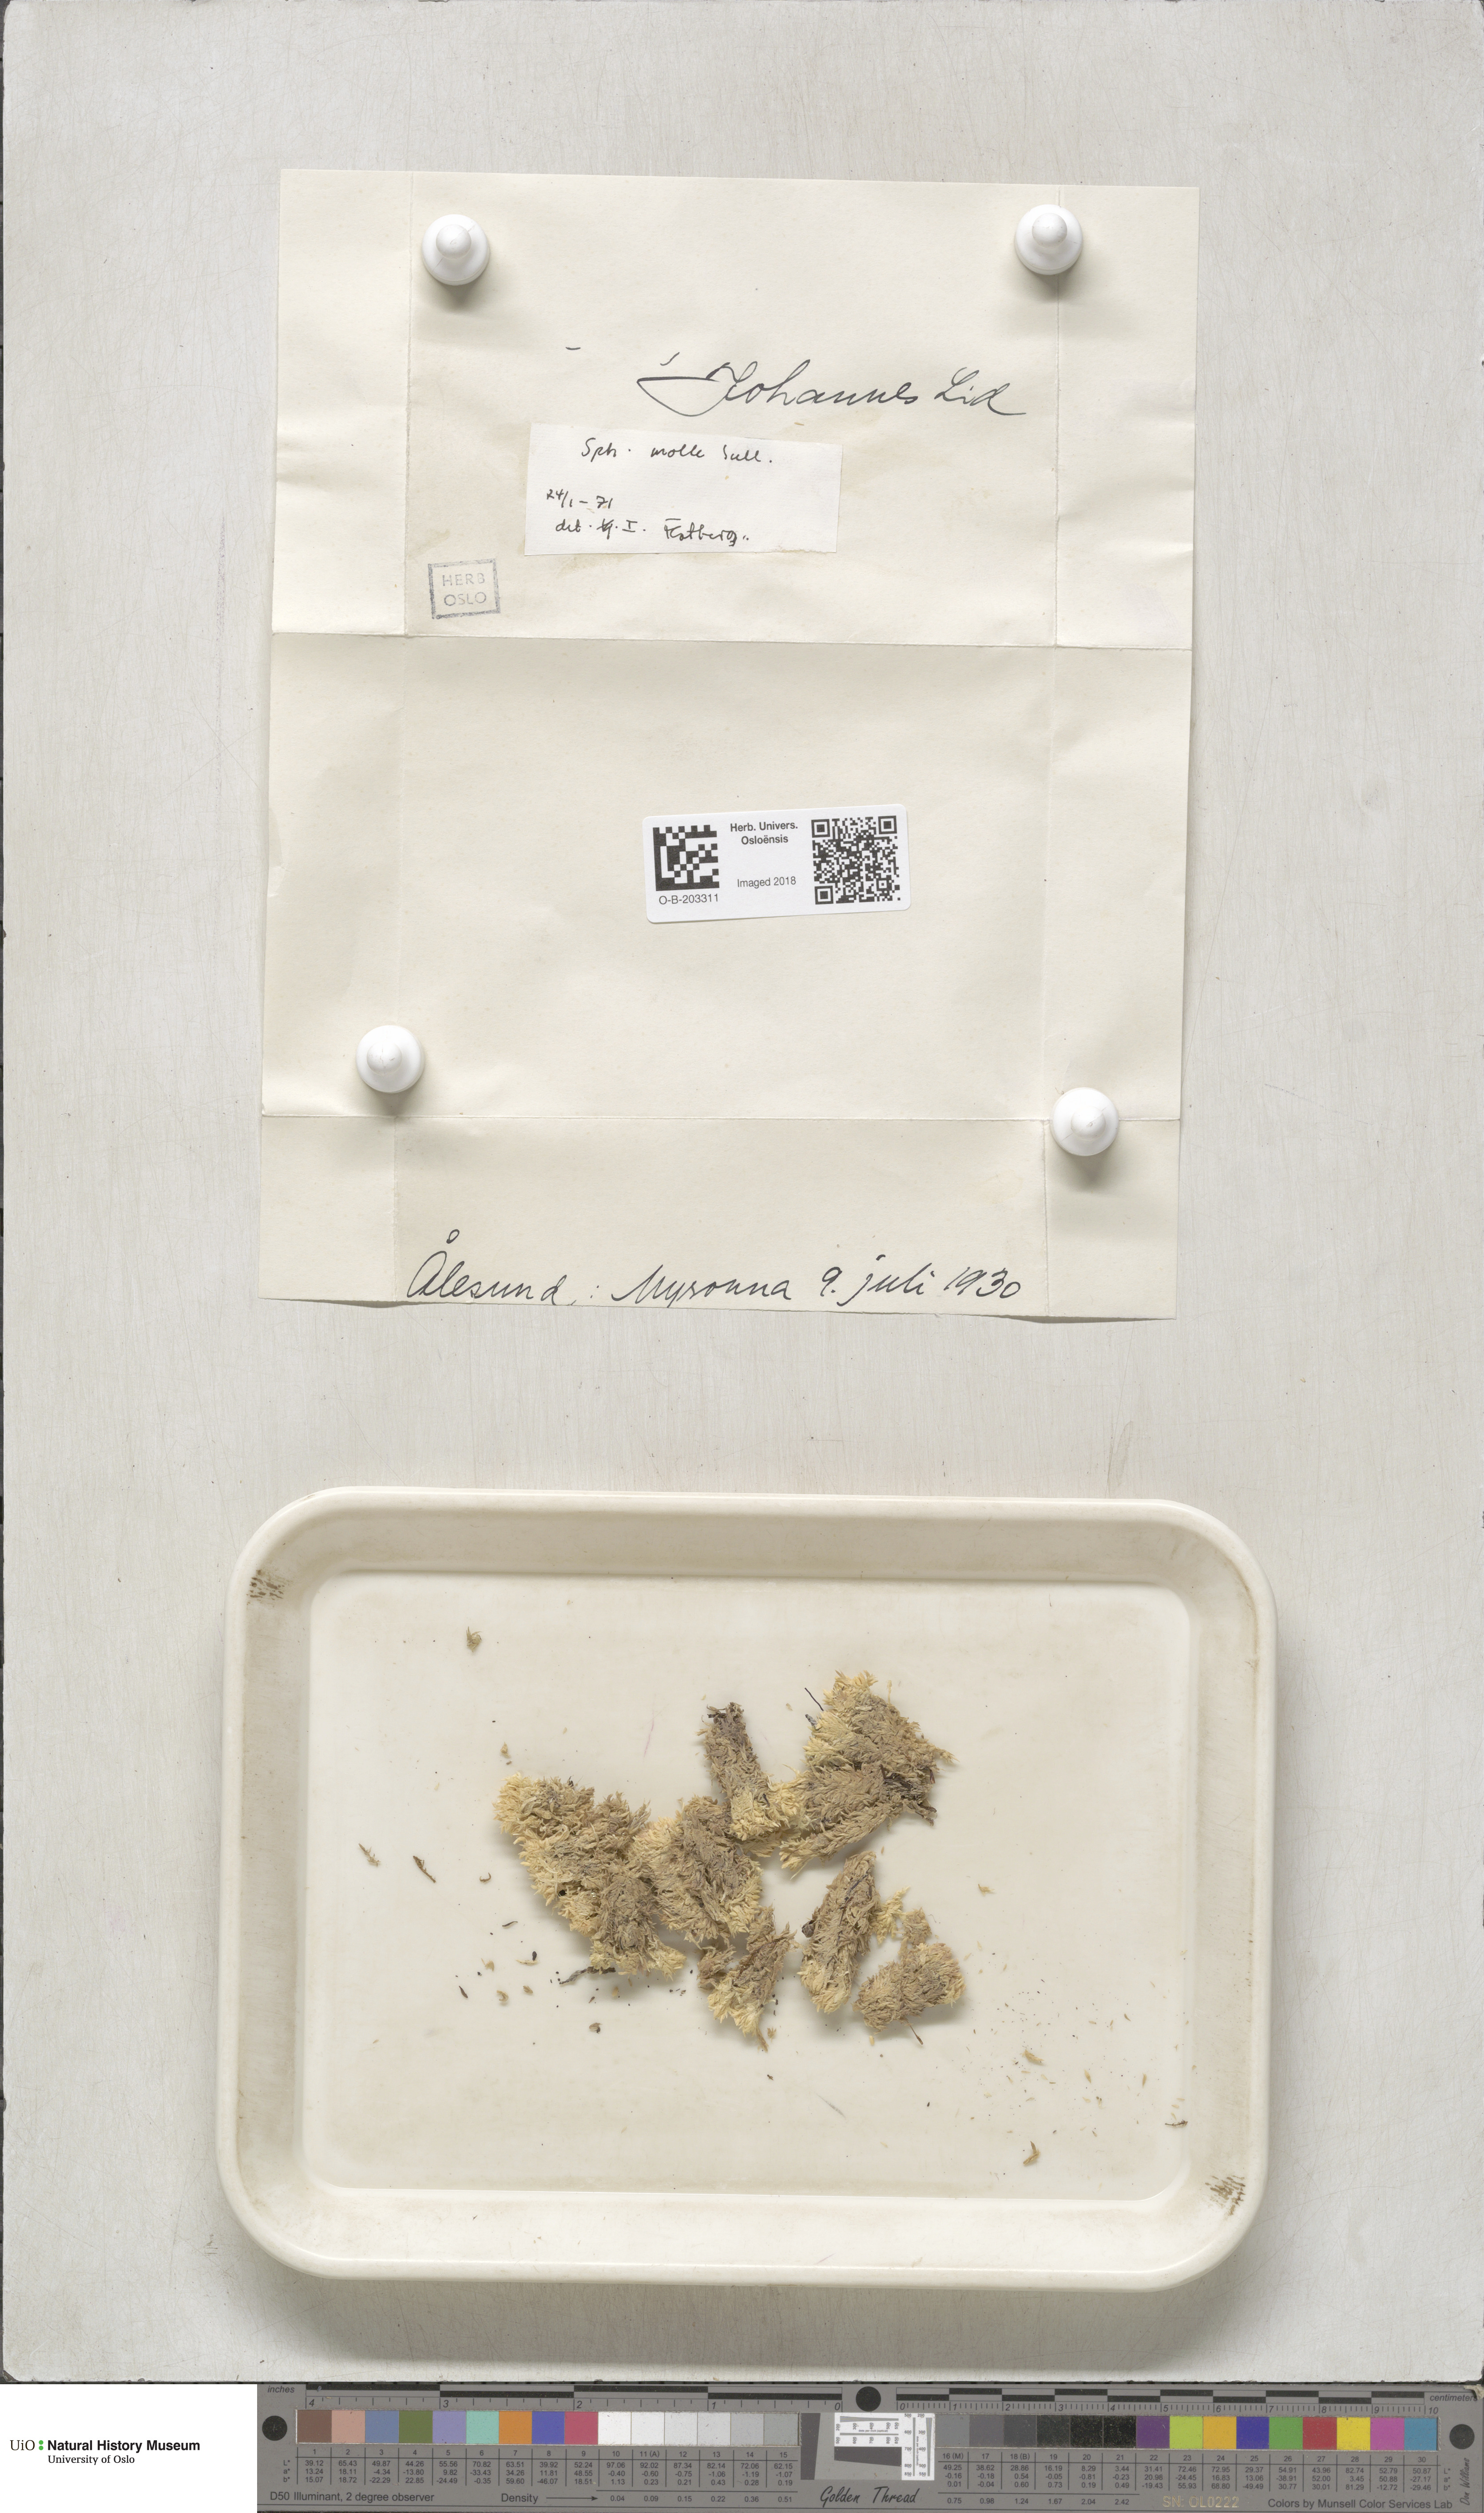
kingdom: Plantae
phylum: Bryophyta
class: Sphagnopsida
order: Sphagnales
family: Sphagnaceae
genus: Sphagnum
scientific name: Sphagnum molle
